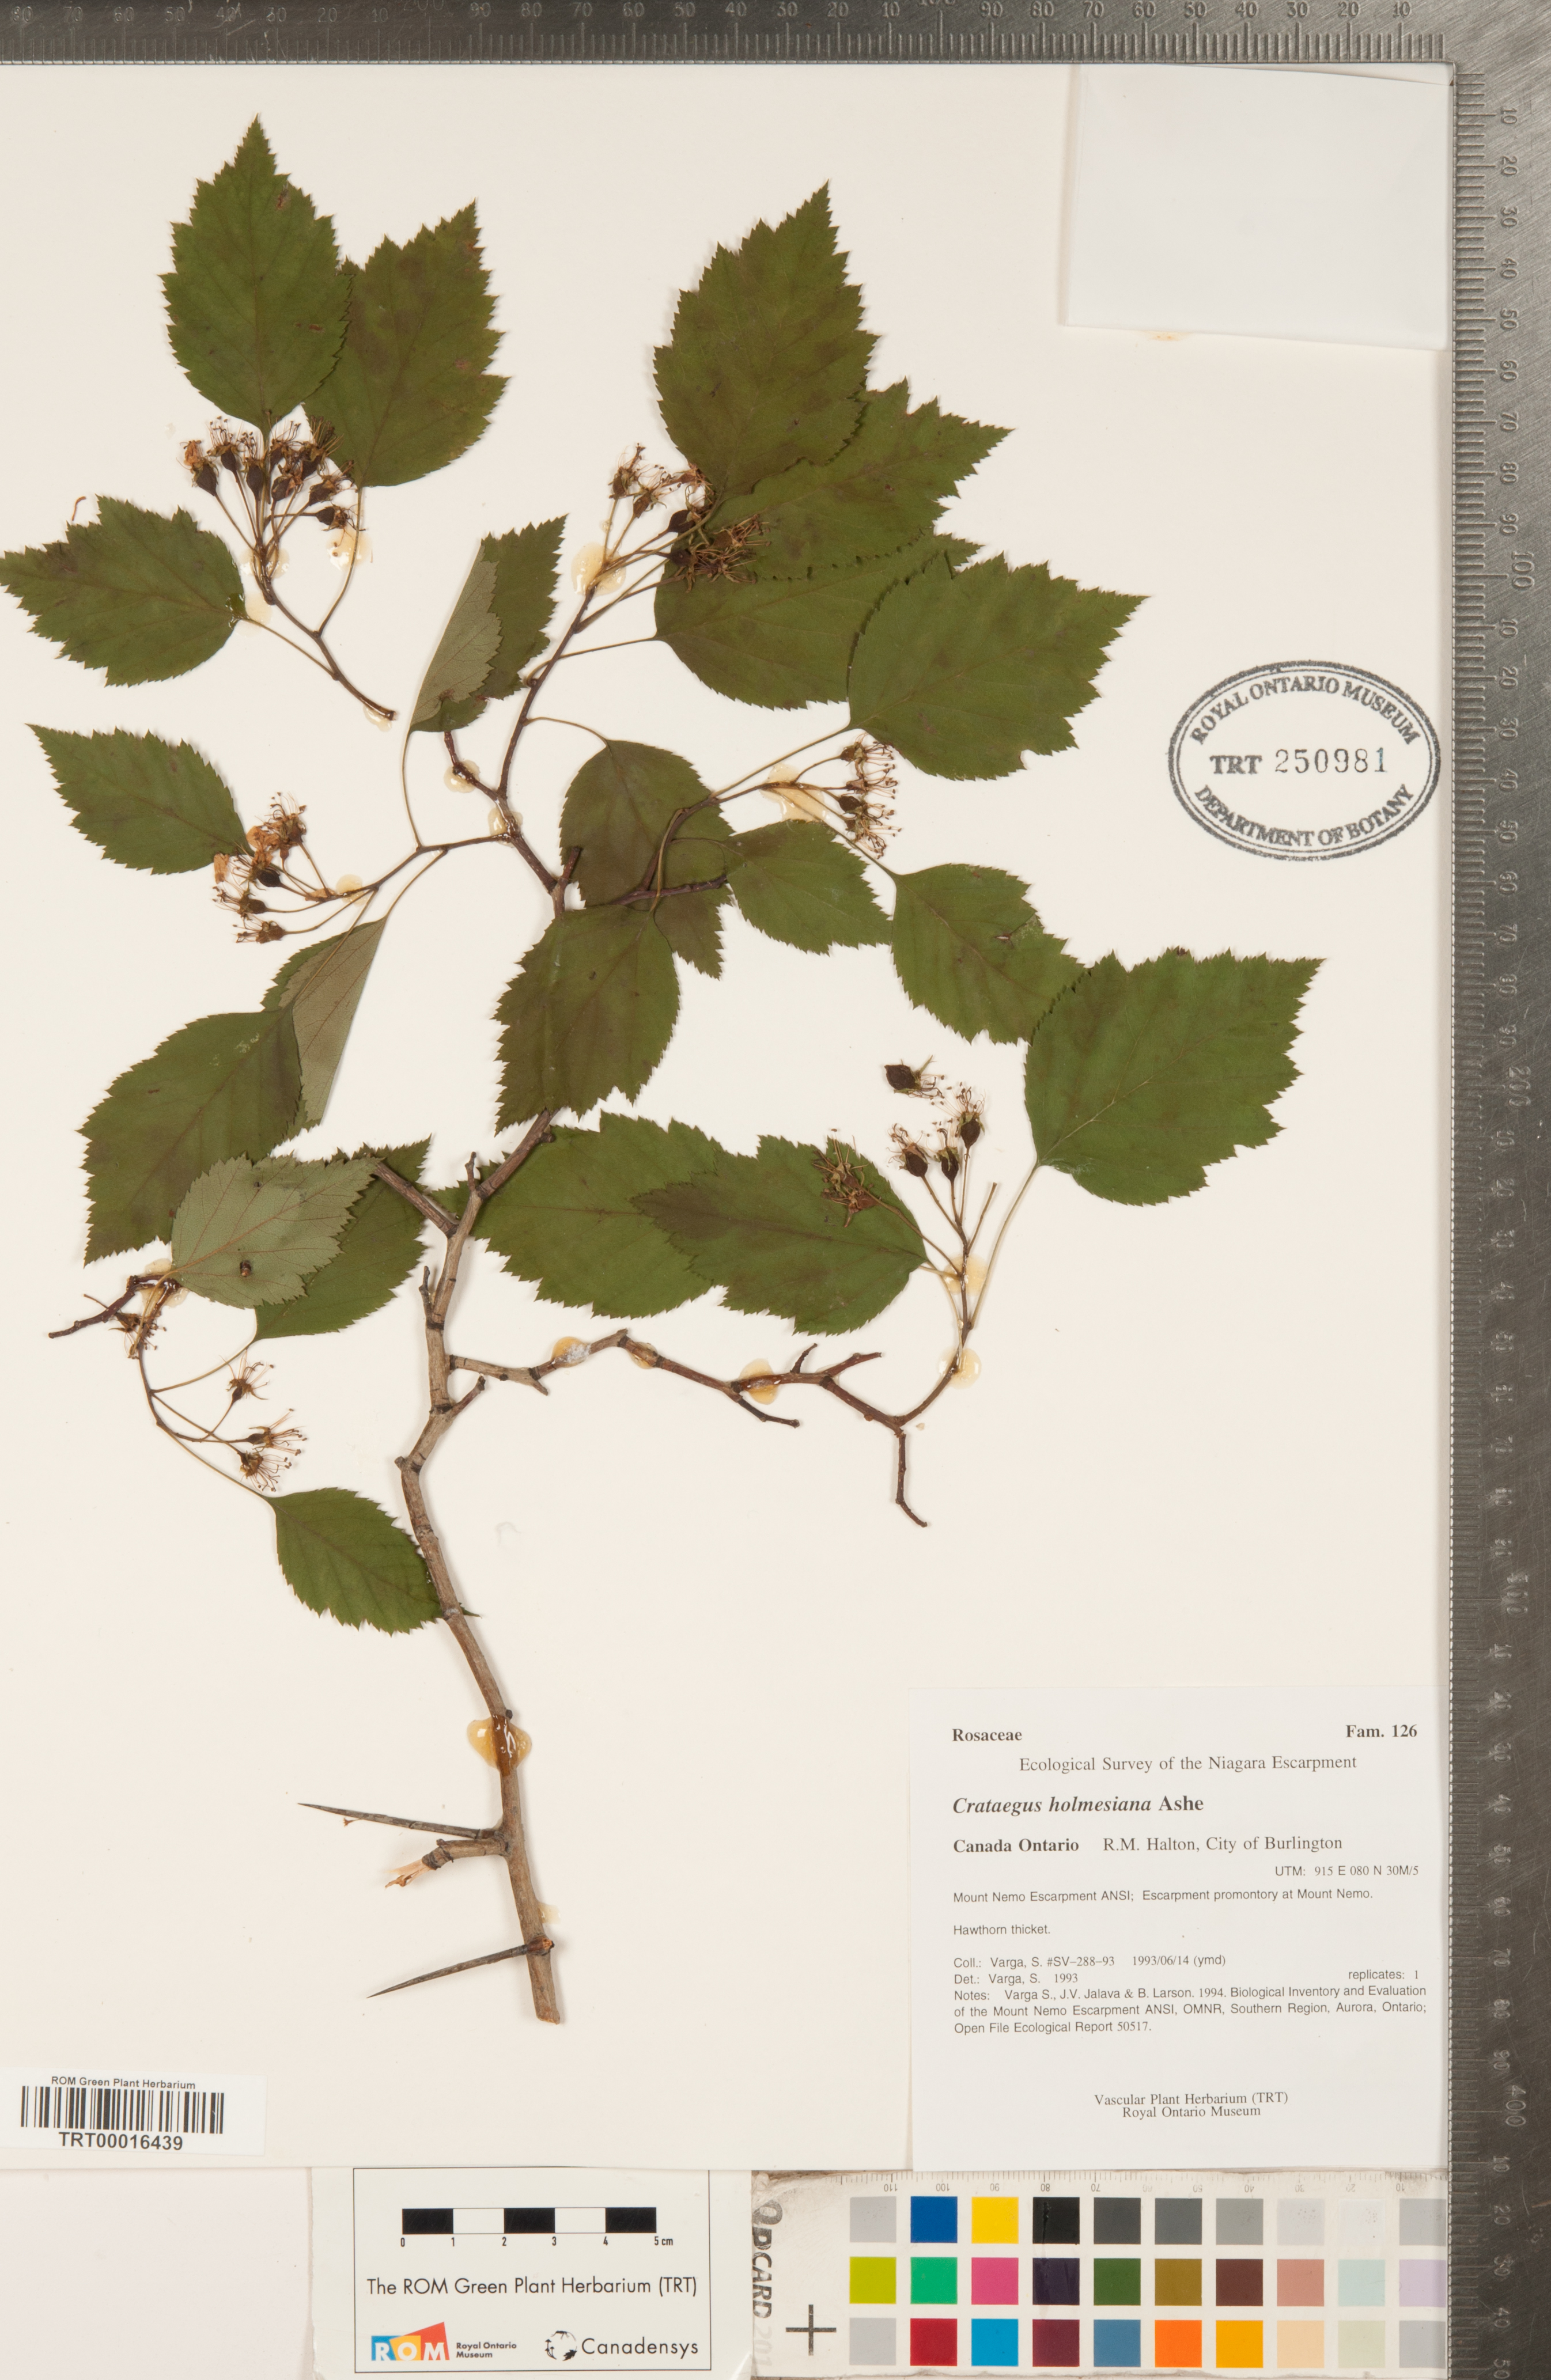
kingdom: Plantae
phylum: Tracheophyta
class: Magnoliopsida
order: Rosales
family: Rosaceae
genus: Crataegus
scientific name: Crataegus holmesiana
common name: Holmes' hawthorn
